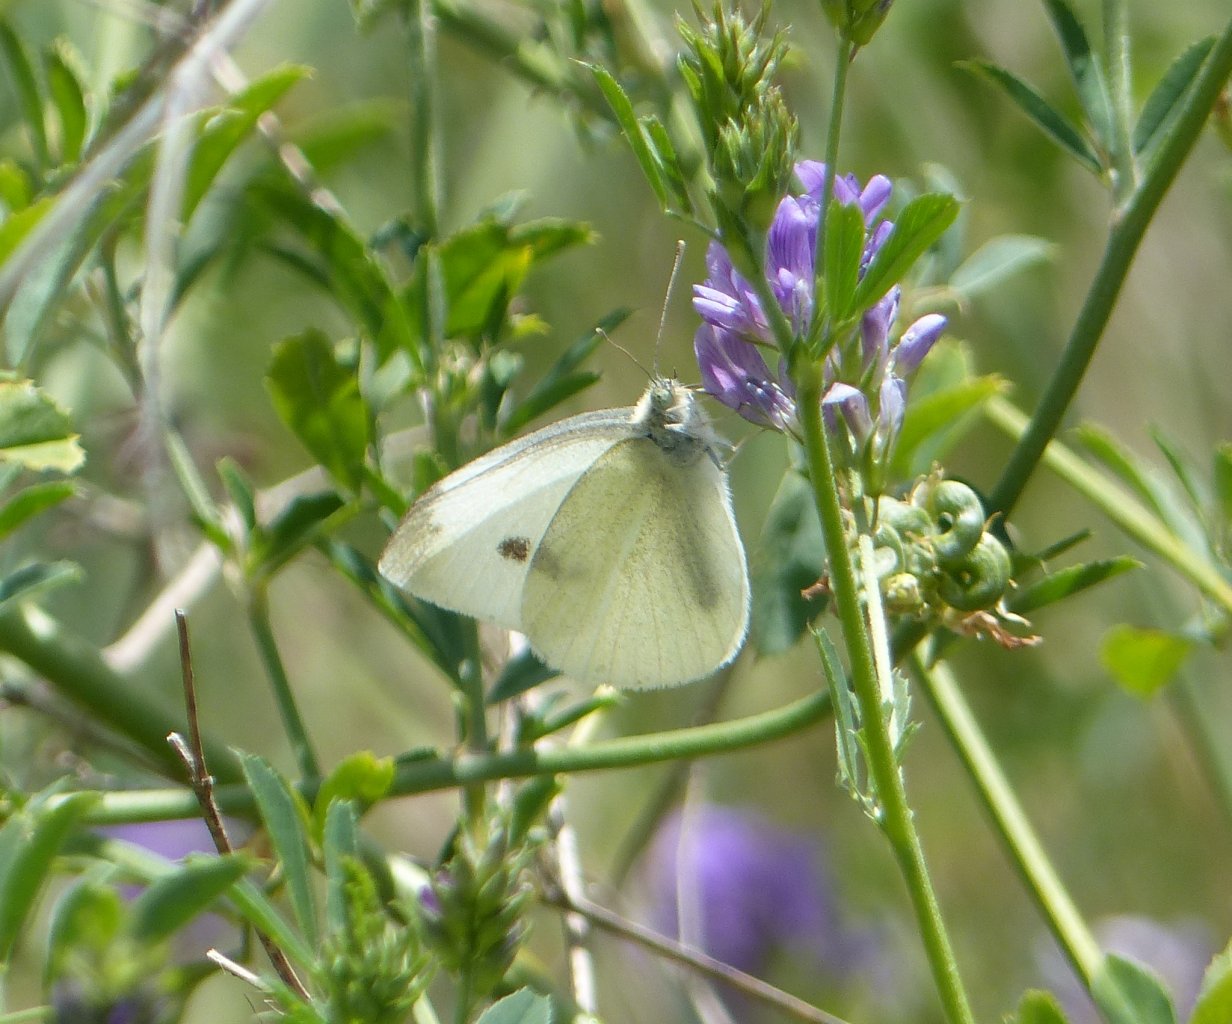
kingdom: Animalia
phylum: Arthropoda
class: Insecta
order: Lepidoptera
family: Pieridae
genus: Pieris
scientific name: Pieris rapae
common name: Cabbage White
